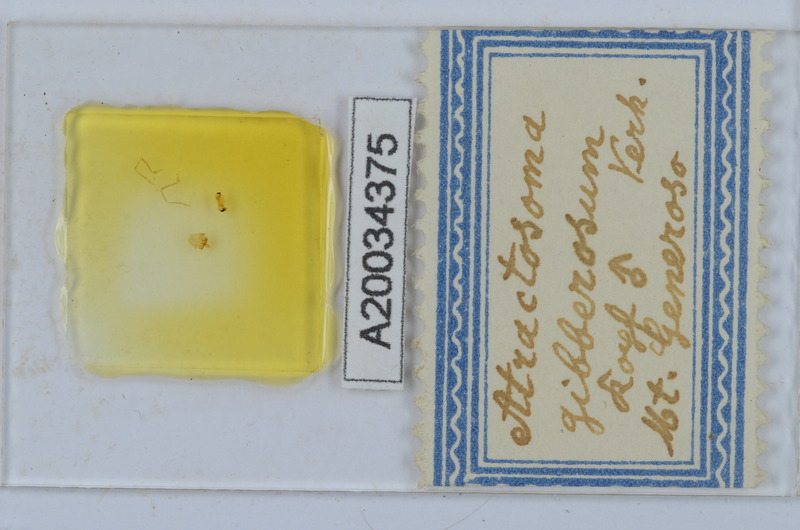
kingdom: Animalia
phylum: Arthropoda
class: Diplopoda
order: Chordeumatida
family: Craspedosomatidae
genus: Atractosoma
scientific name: Atractosoma gibberosum
